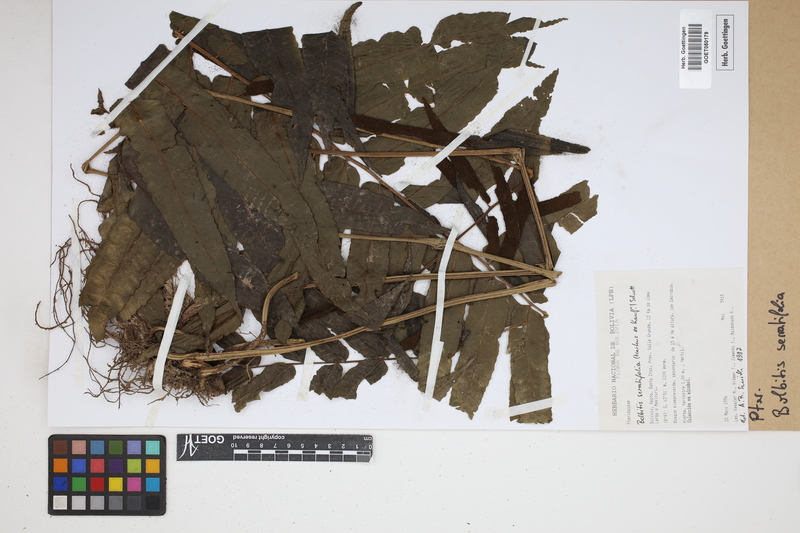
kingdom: Plantae
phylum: Tracheophyta
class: Polypodiopsida
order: Polypodiales
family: Dryopteridaceae
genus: Bolbitis
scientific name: Bolbitis serratifolia
